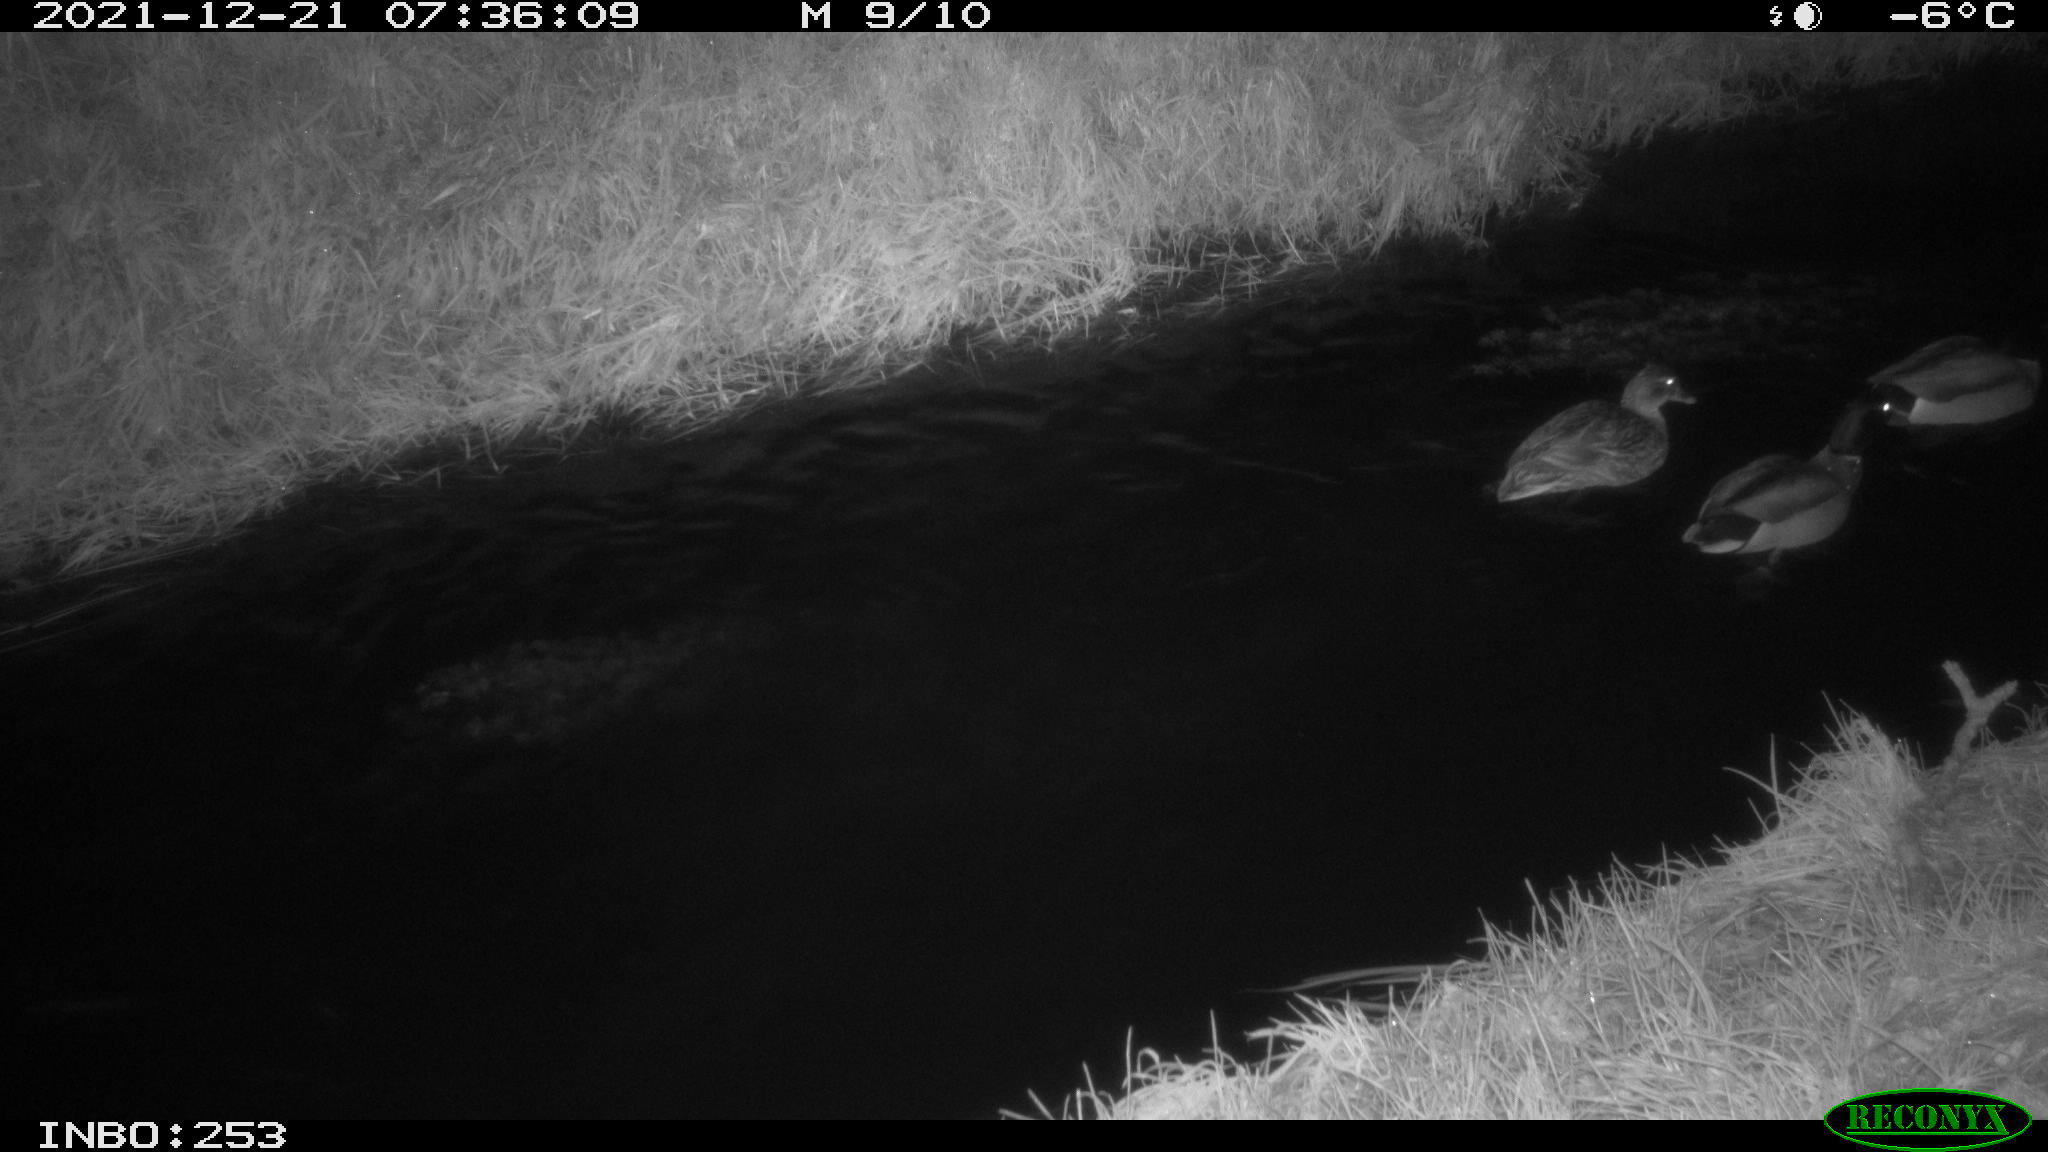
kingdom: Animalia
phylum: Chordata
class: Aves
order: Anseriformes
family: Anatidae
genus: Anas
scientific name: Anas
